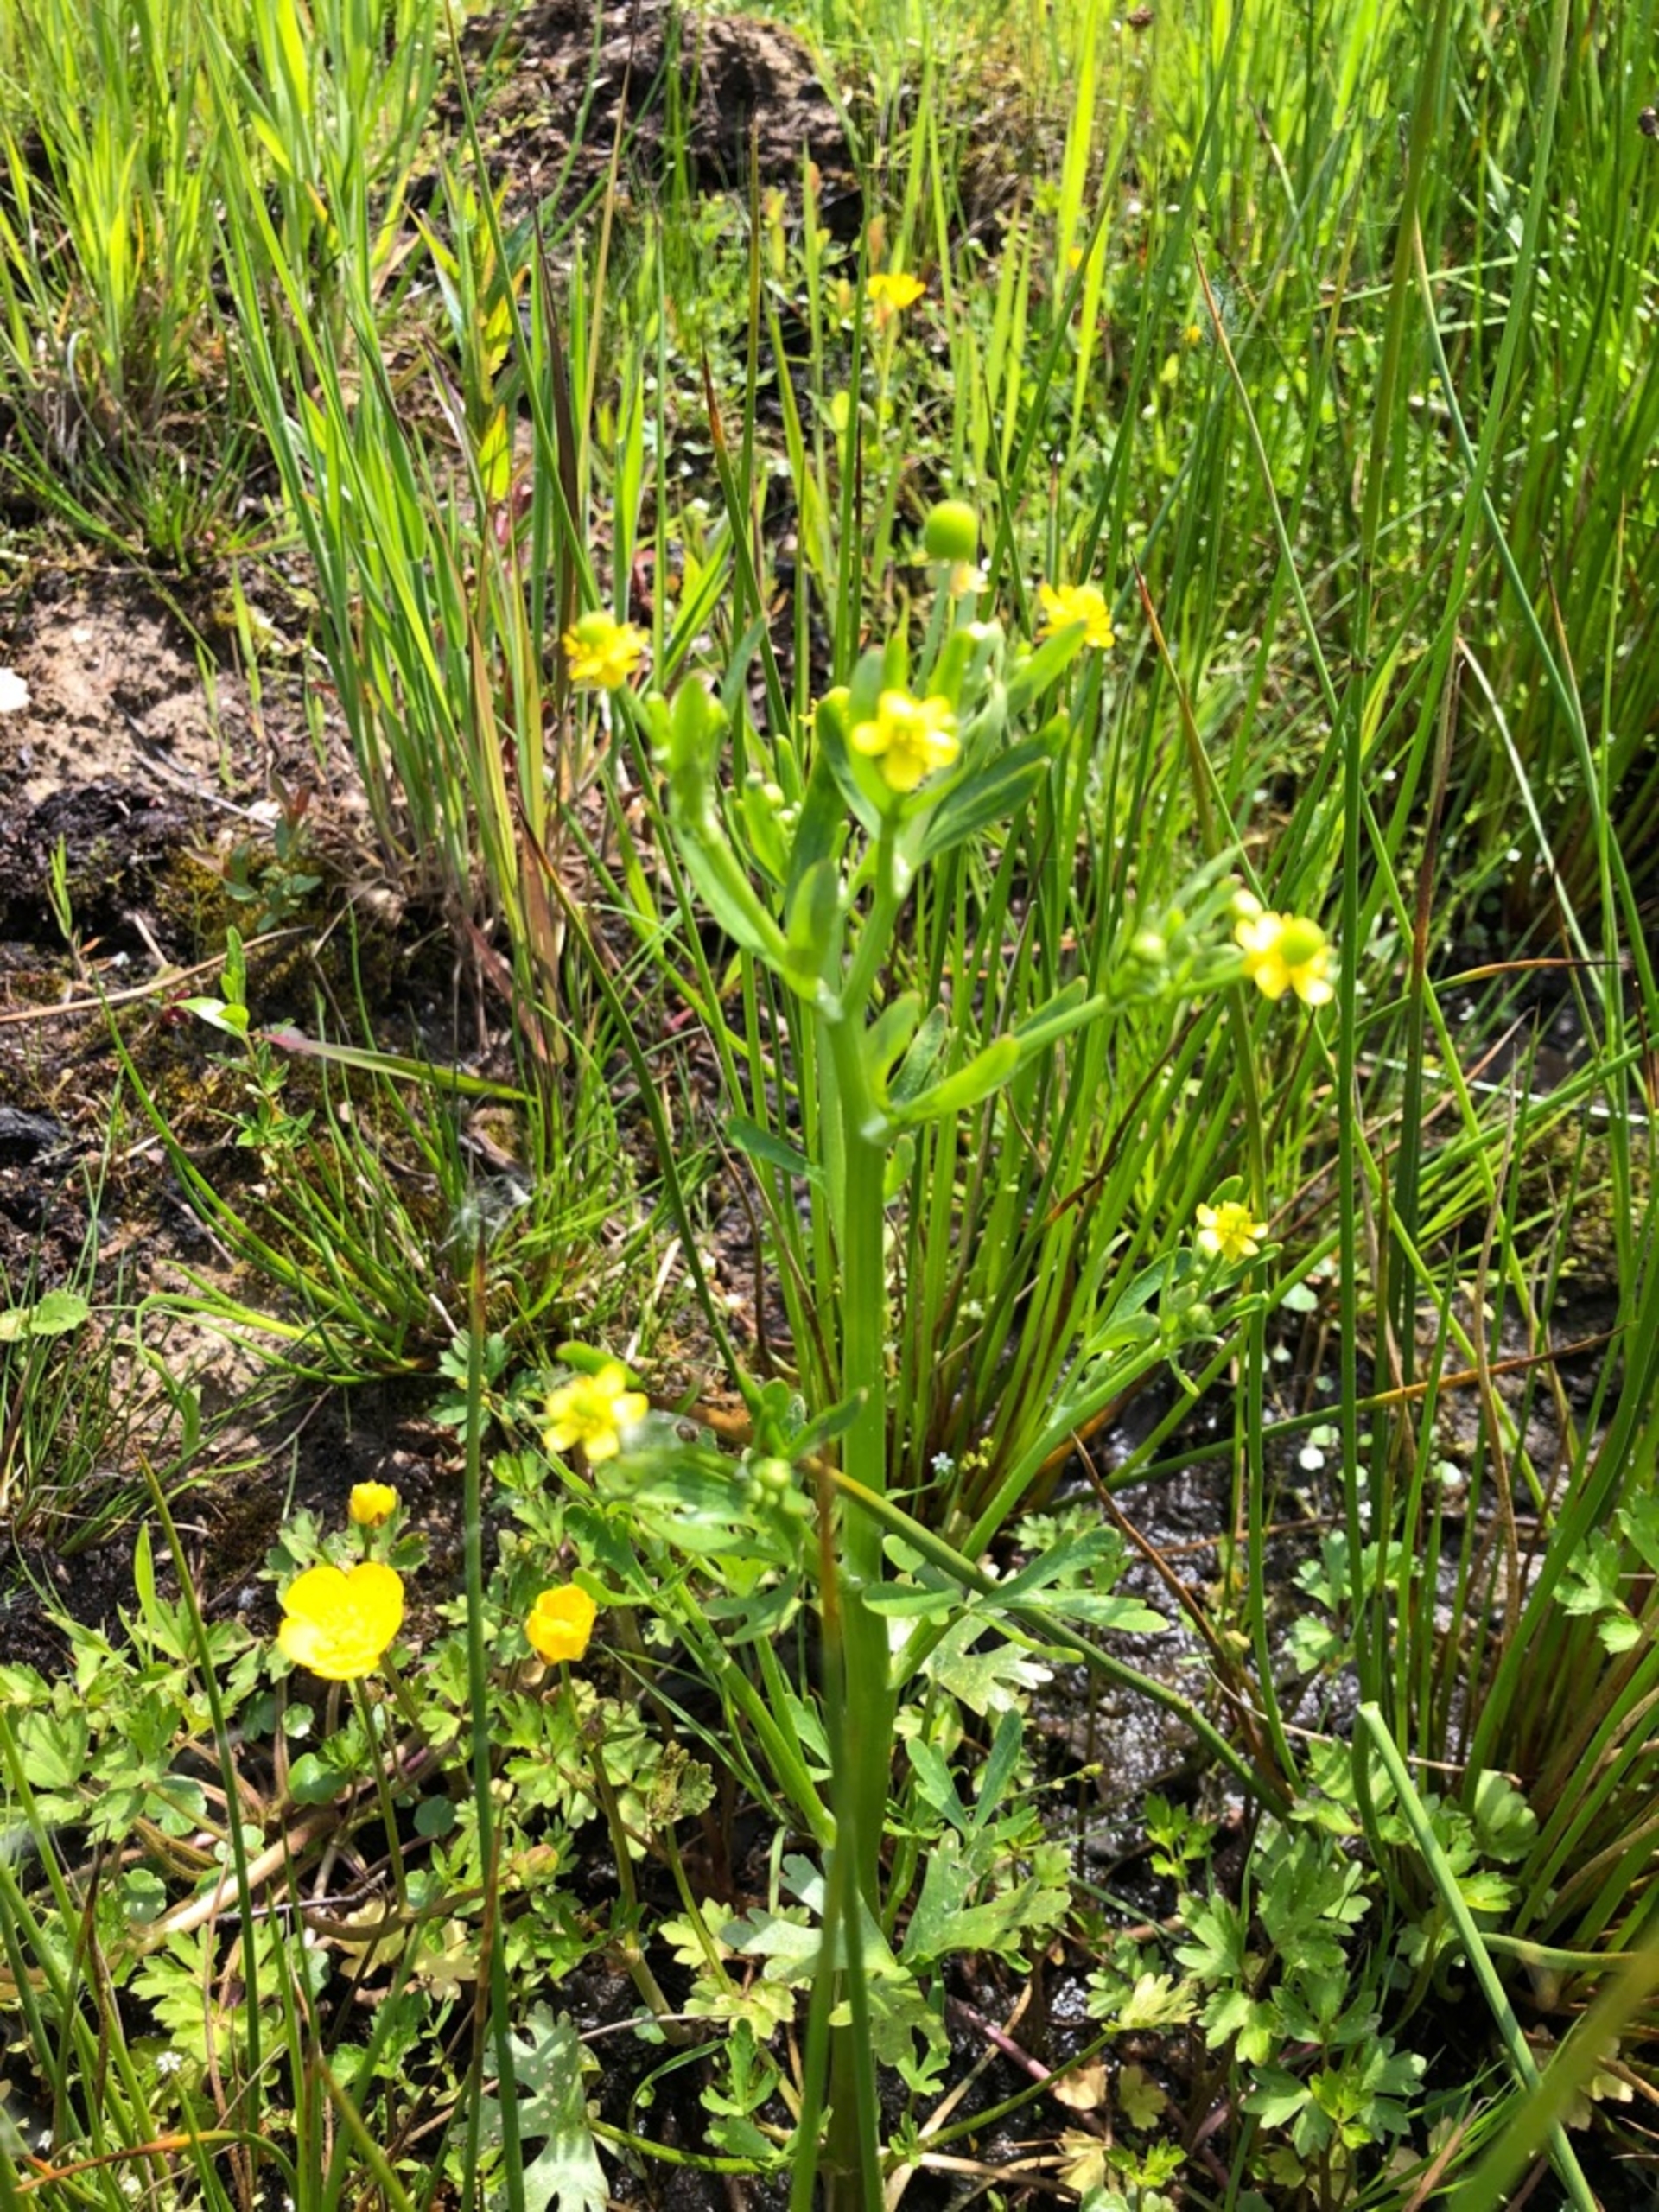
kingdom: Plantae
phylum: Tracheophyta
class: Magnoliopsida
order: Ranunculales
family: Ranunculaceae
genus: Ranunculus
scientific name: Ranunculus sceleratus
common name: Tigger-ranunkel
